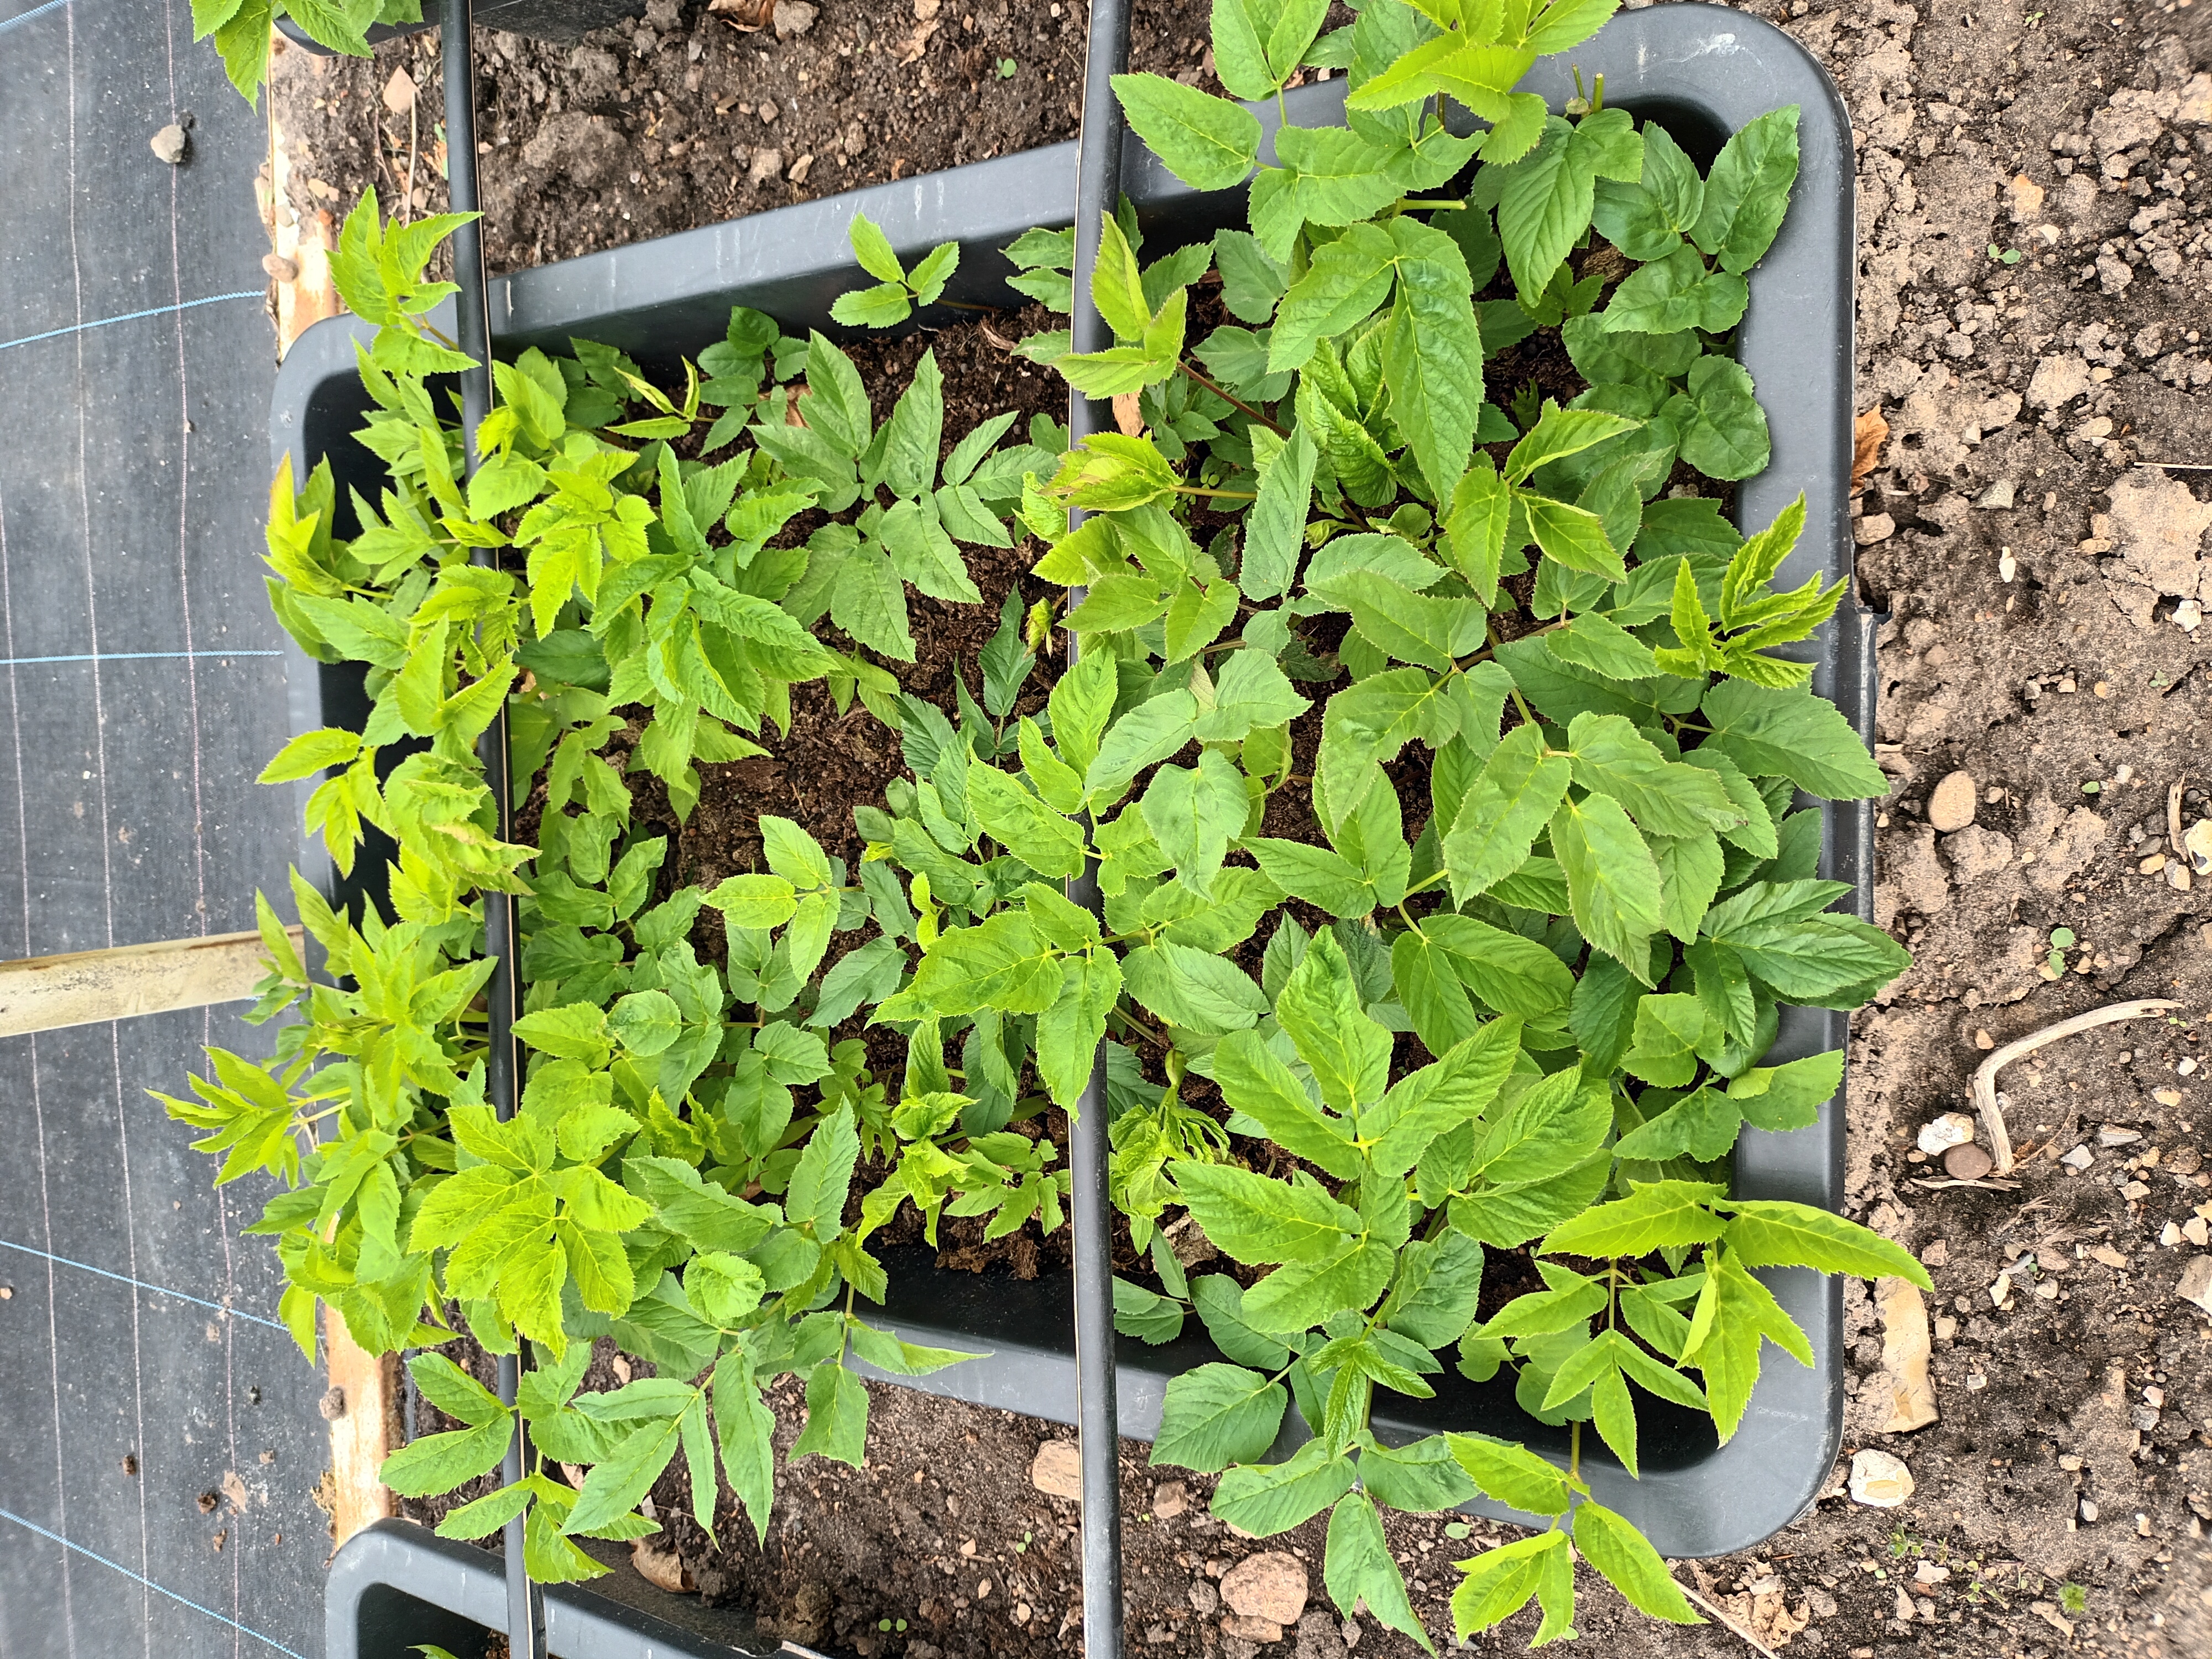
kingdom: Plantae
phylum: Tracheophyta
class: Magnoliopsida
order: Apiales
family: Apiaceae
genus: Aegopodium
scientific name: Aegopodium podagraria
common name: Ground-elder
